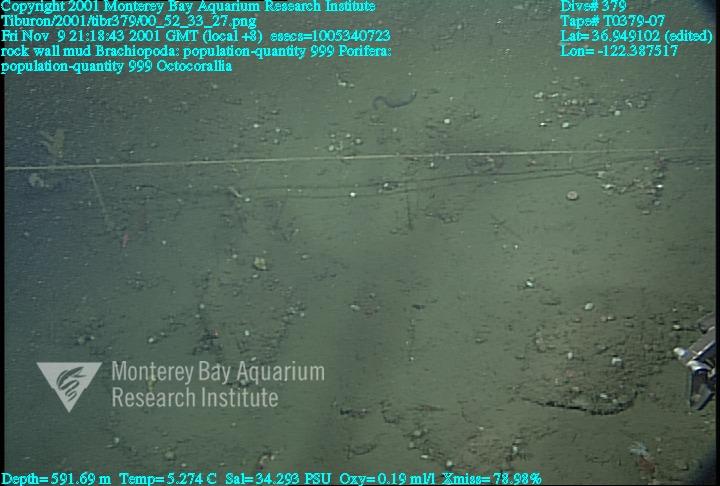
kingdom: Animalia
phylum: Porifera
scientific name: Porifera
